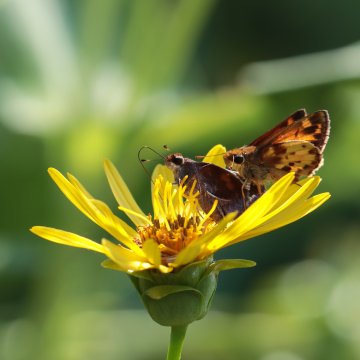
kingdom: Animalia
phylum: Arthropoda
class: Insecta
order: Lepidoptera
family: Hesperiidae
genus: Lon
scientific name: Lon zabulon
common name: Zabulon Skipper
